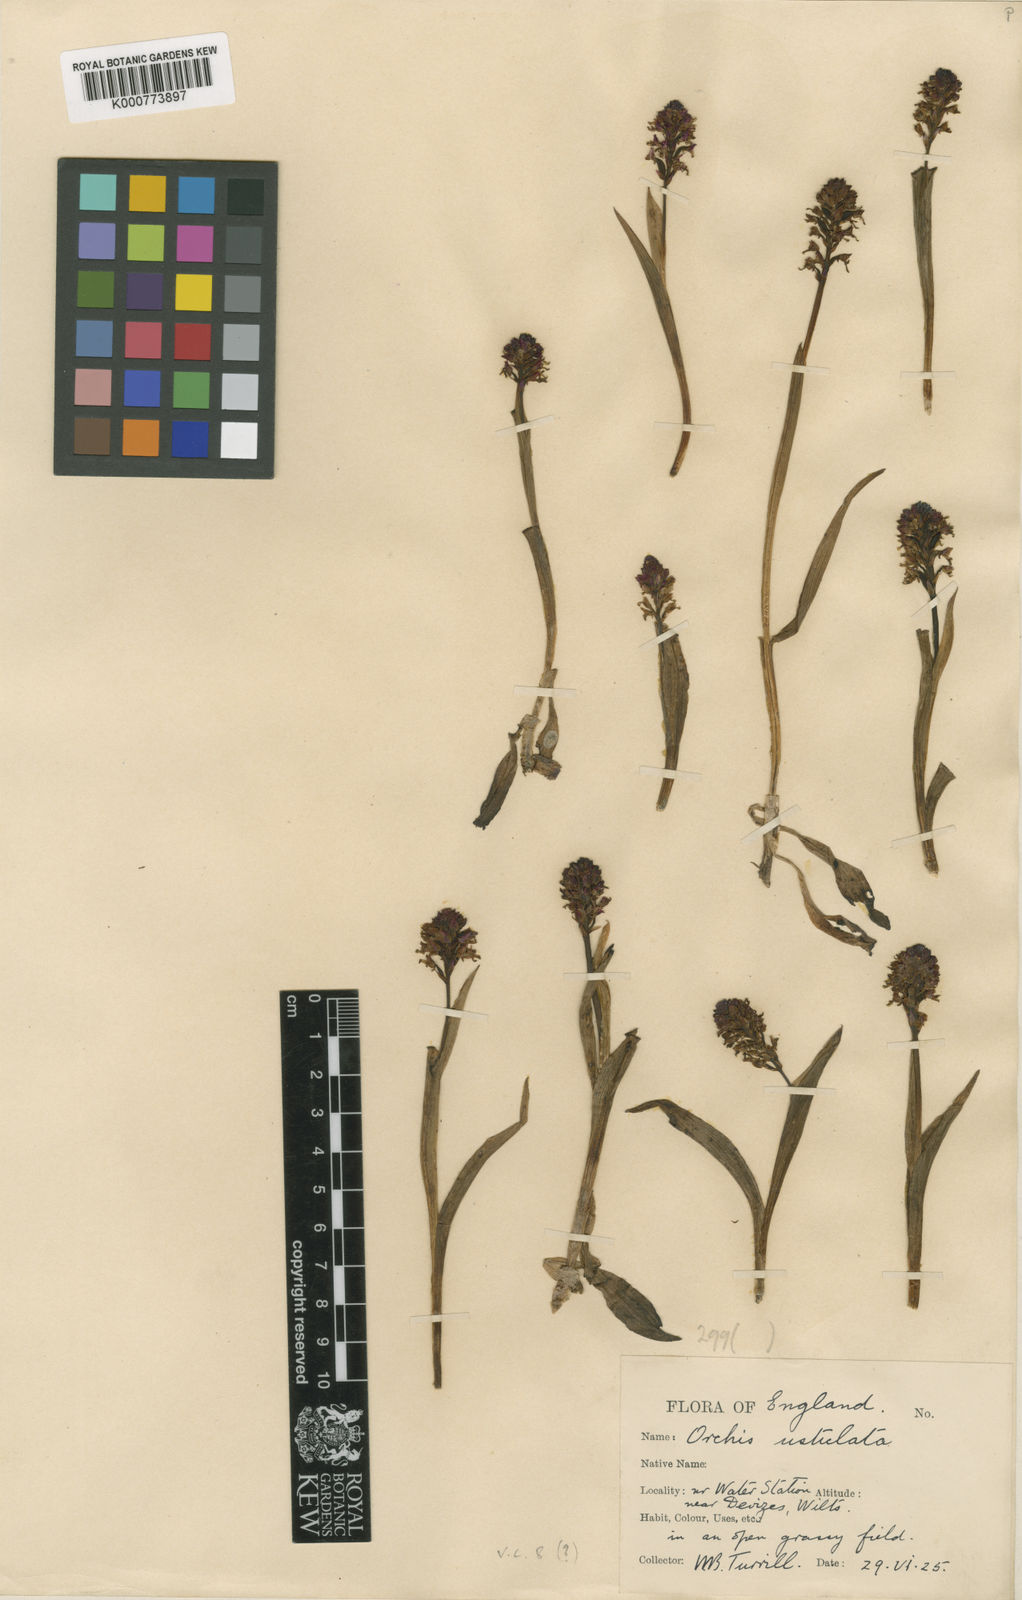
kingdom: Plantae
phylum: Tracheophyta
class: Liliopsida
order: Asparagales
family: Orchidaceae
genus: Neotinea
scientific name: Neotinea ustulata
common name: Burnt orchid
